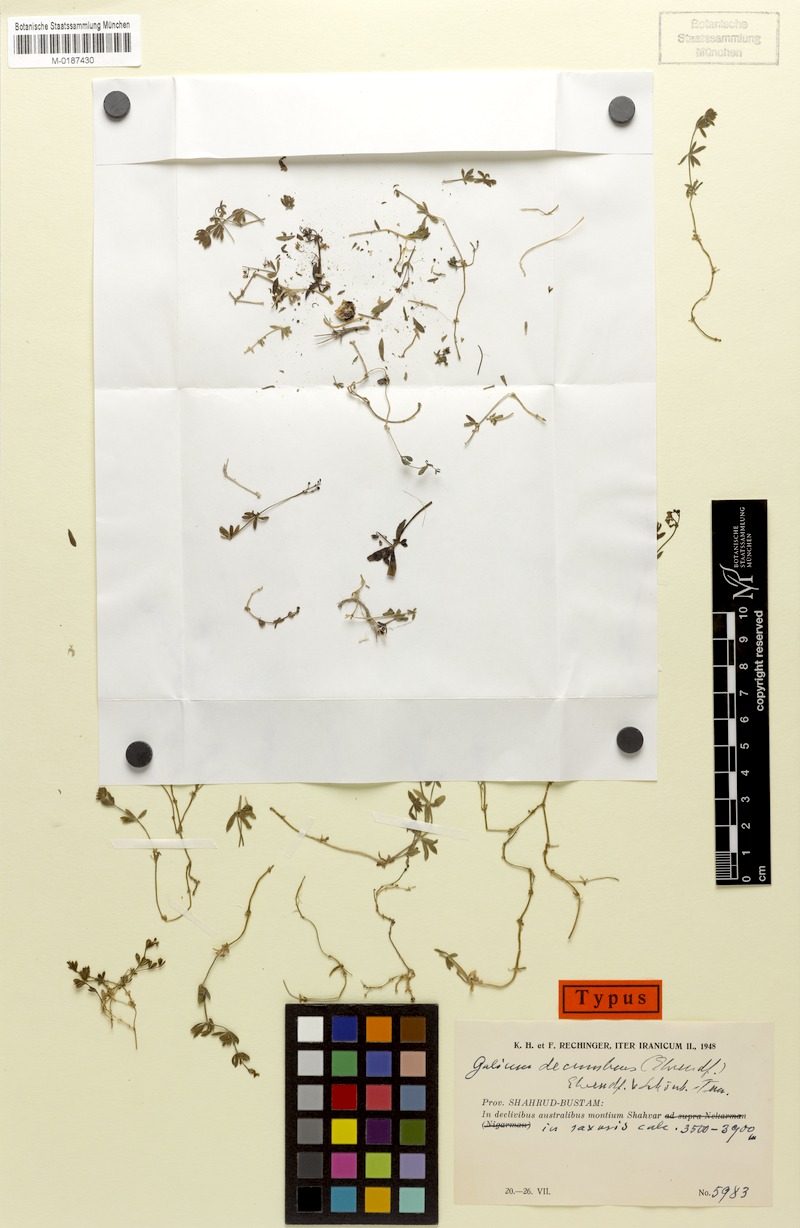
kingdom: Plantae
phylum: Tracheophyta
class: Magnoliopsida
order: Gentianales
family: Rubiaceae
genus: Galium
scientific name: Galium decumbens
